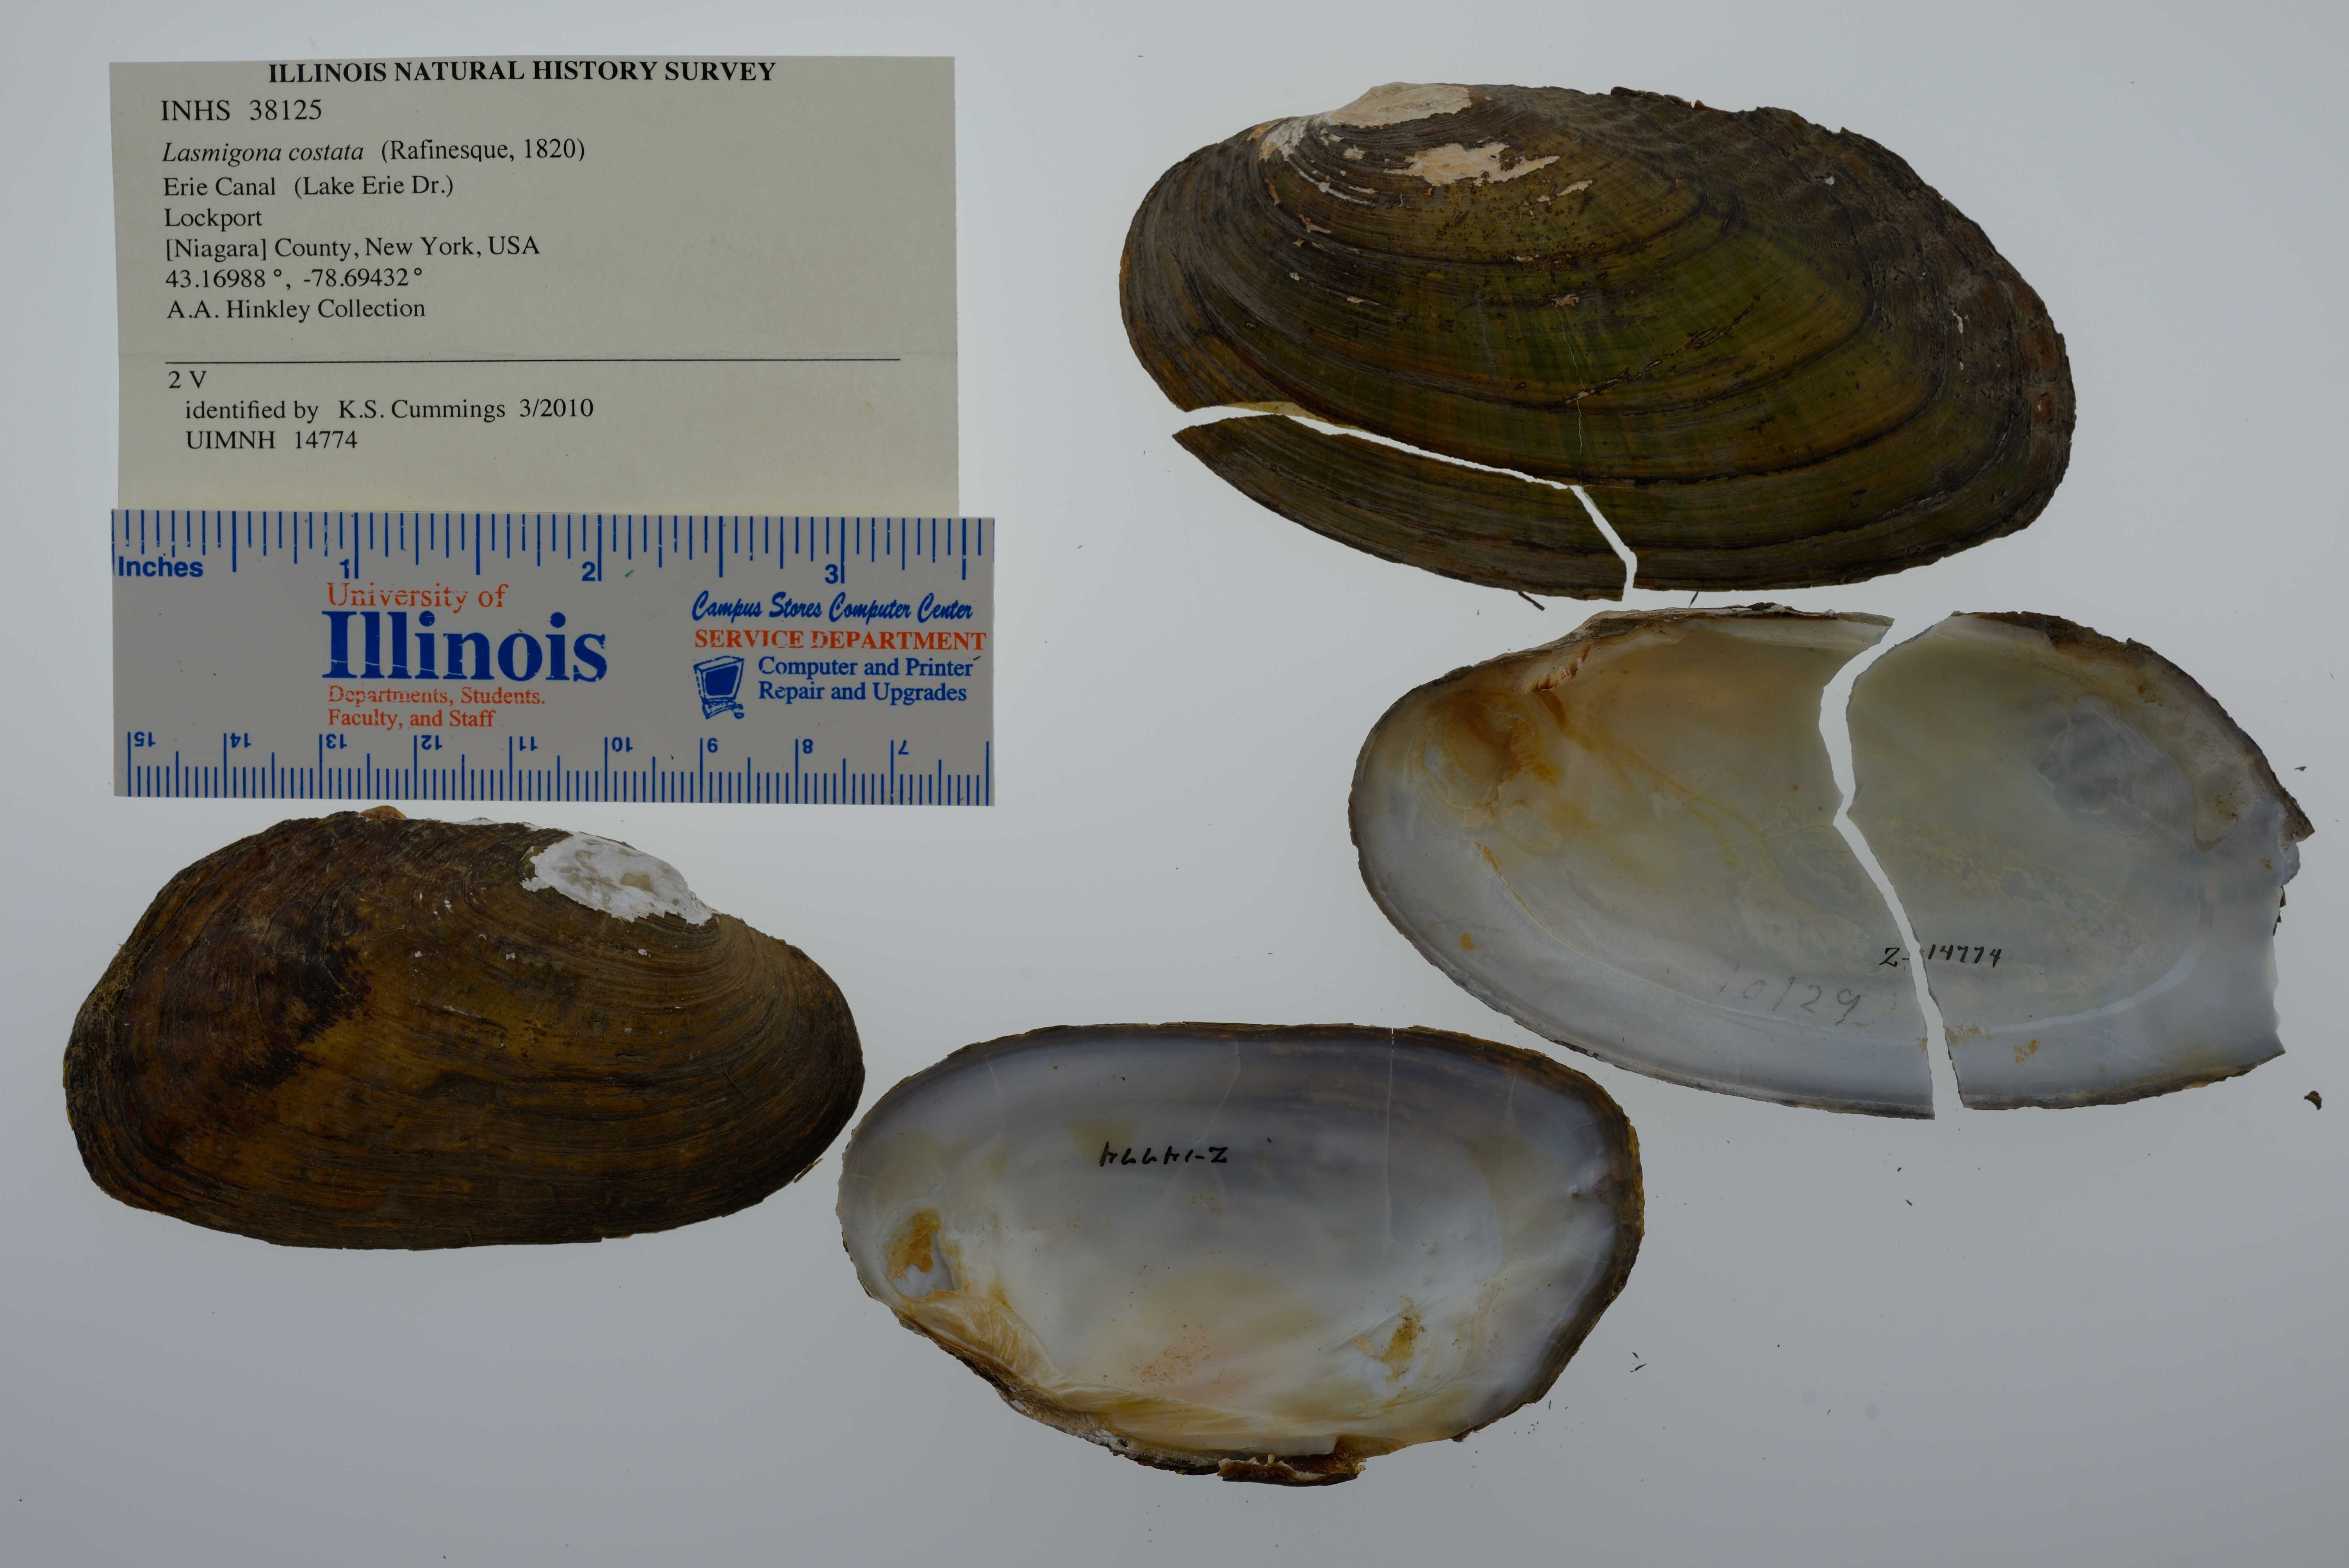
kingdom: Animalia
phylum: Mollusca
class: Bivalvia
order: Unionida
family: Unionidae
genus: Lasmigona
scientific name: Lasmigona costata
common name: Flutedshell
